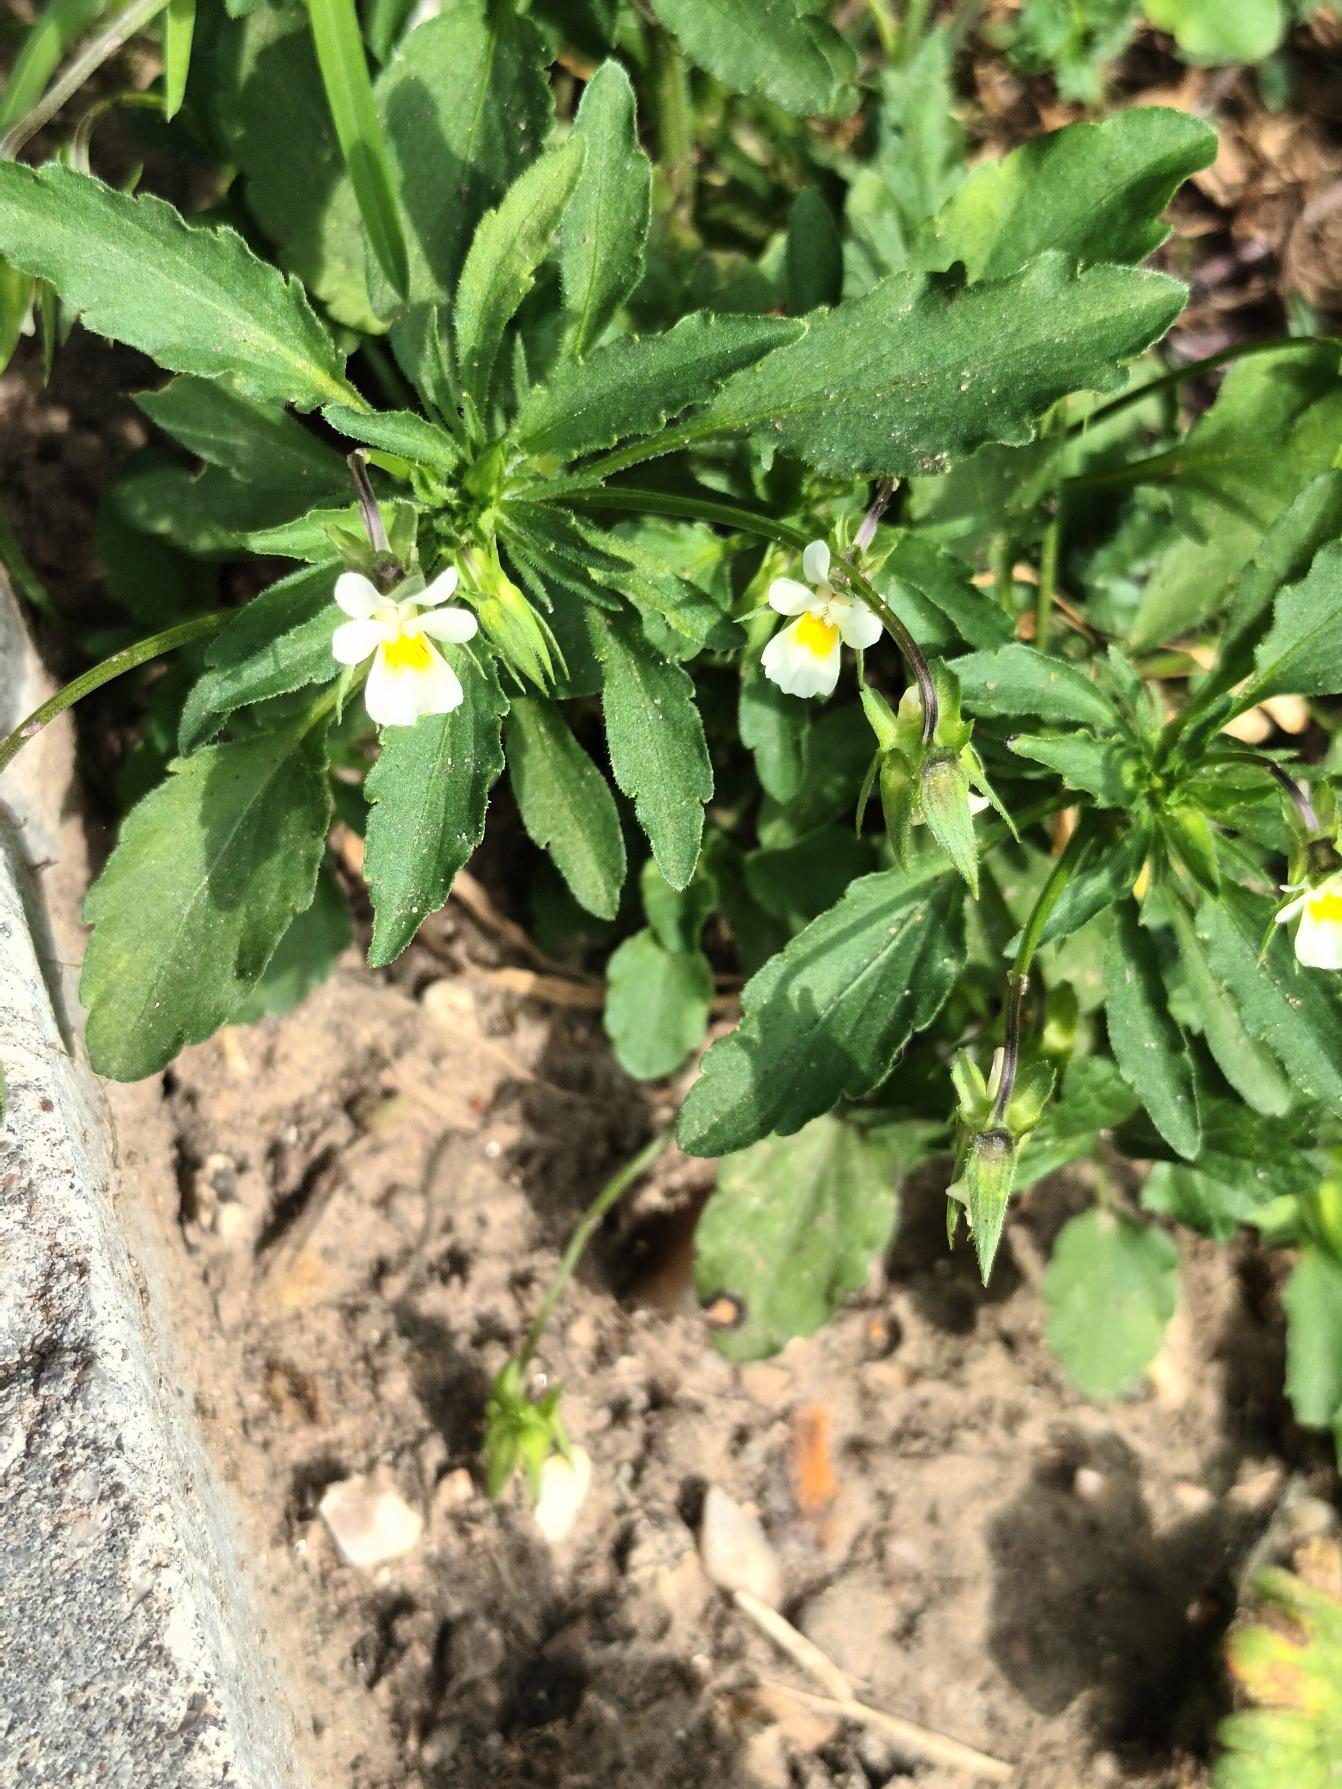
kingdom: Plantae
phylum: Tracheophyta
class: Magnoliopsida
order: Malpighiales
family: Violaceae
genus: Viola
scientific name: Viola arvensis
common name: Ager-stedmoderblomst
